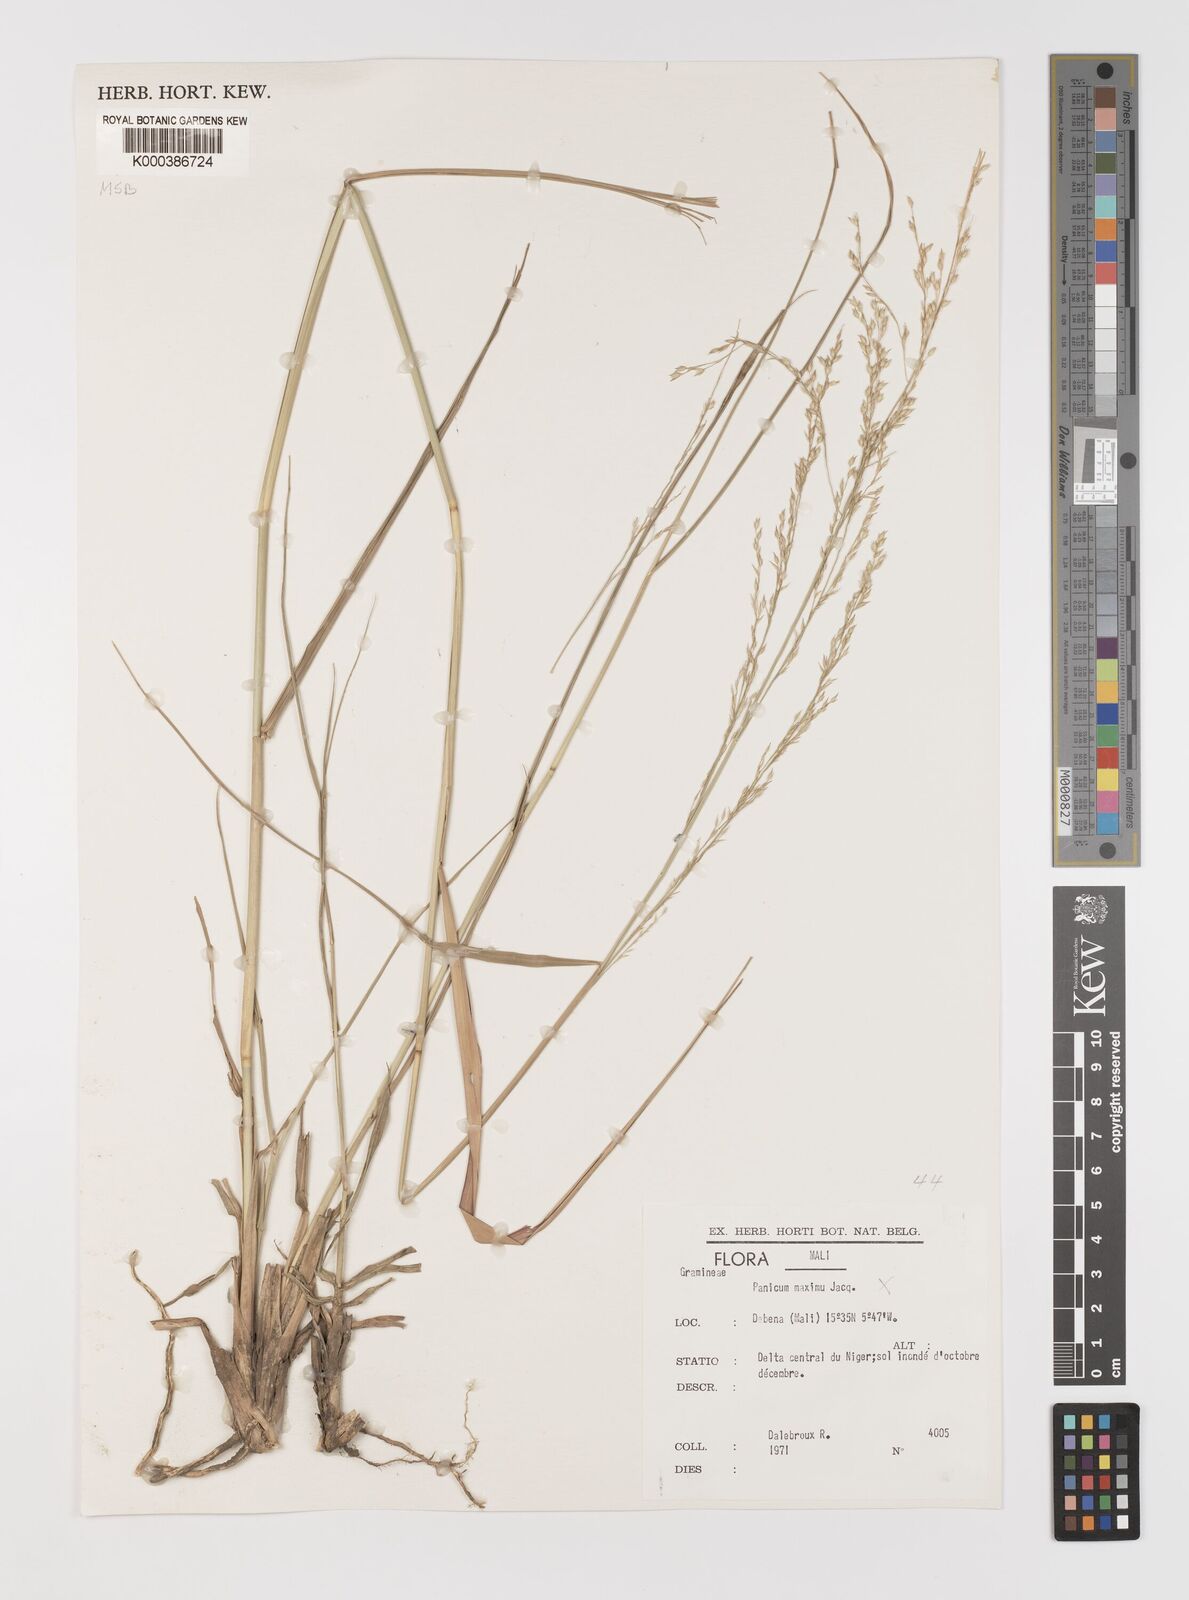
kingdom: Plantae
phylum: Tracheophyta
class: Liliopsida
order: Poales
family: Poaceae
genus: Panicum
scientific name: Panicum phragmitoides
